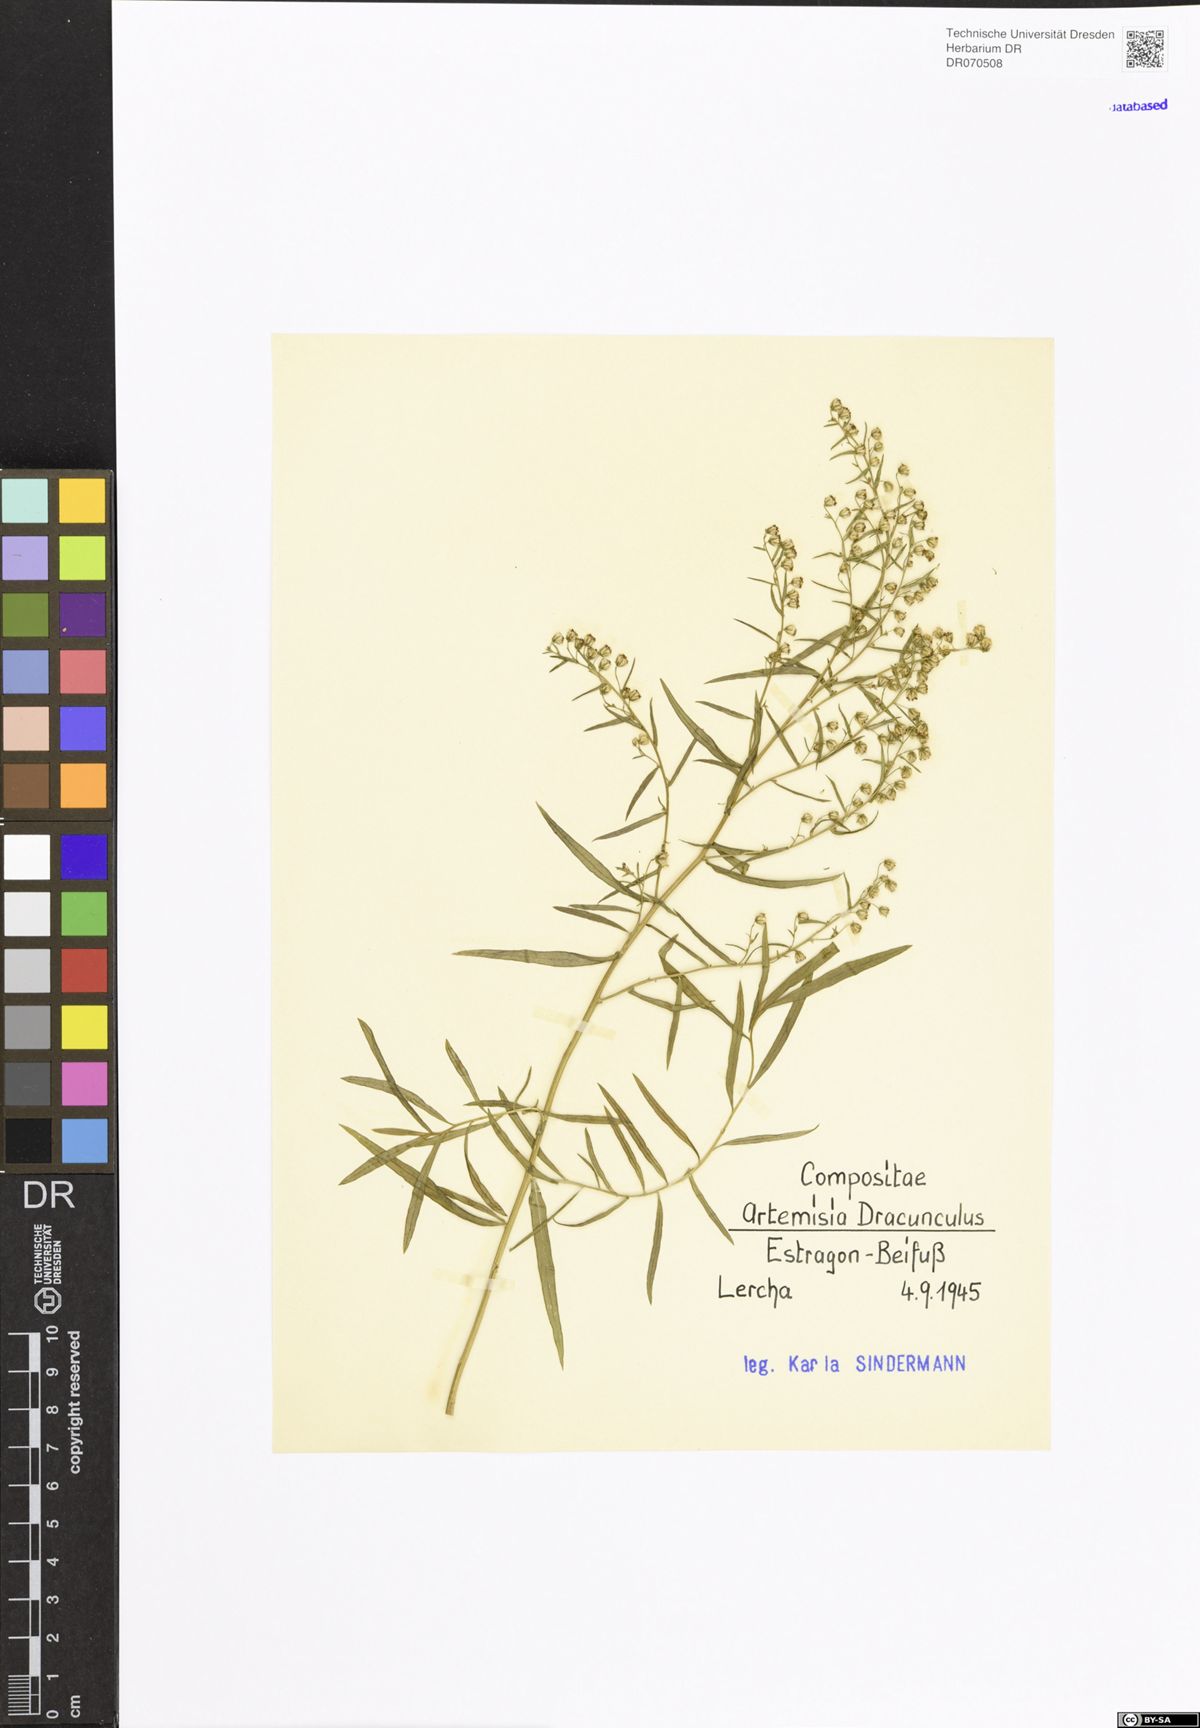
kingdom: Plantae
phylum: Tracheophyta
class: Magnoliopsida
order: Asterales
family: Asteraceae
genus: Artemisia
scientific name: Artemisia dracunculus
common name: Tarragon
